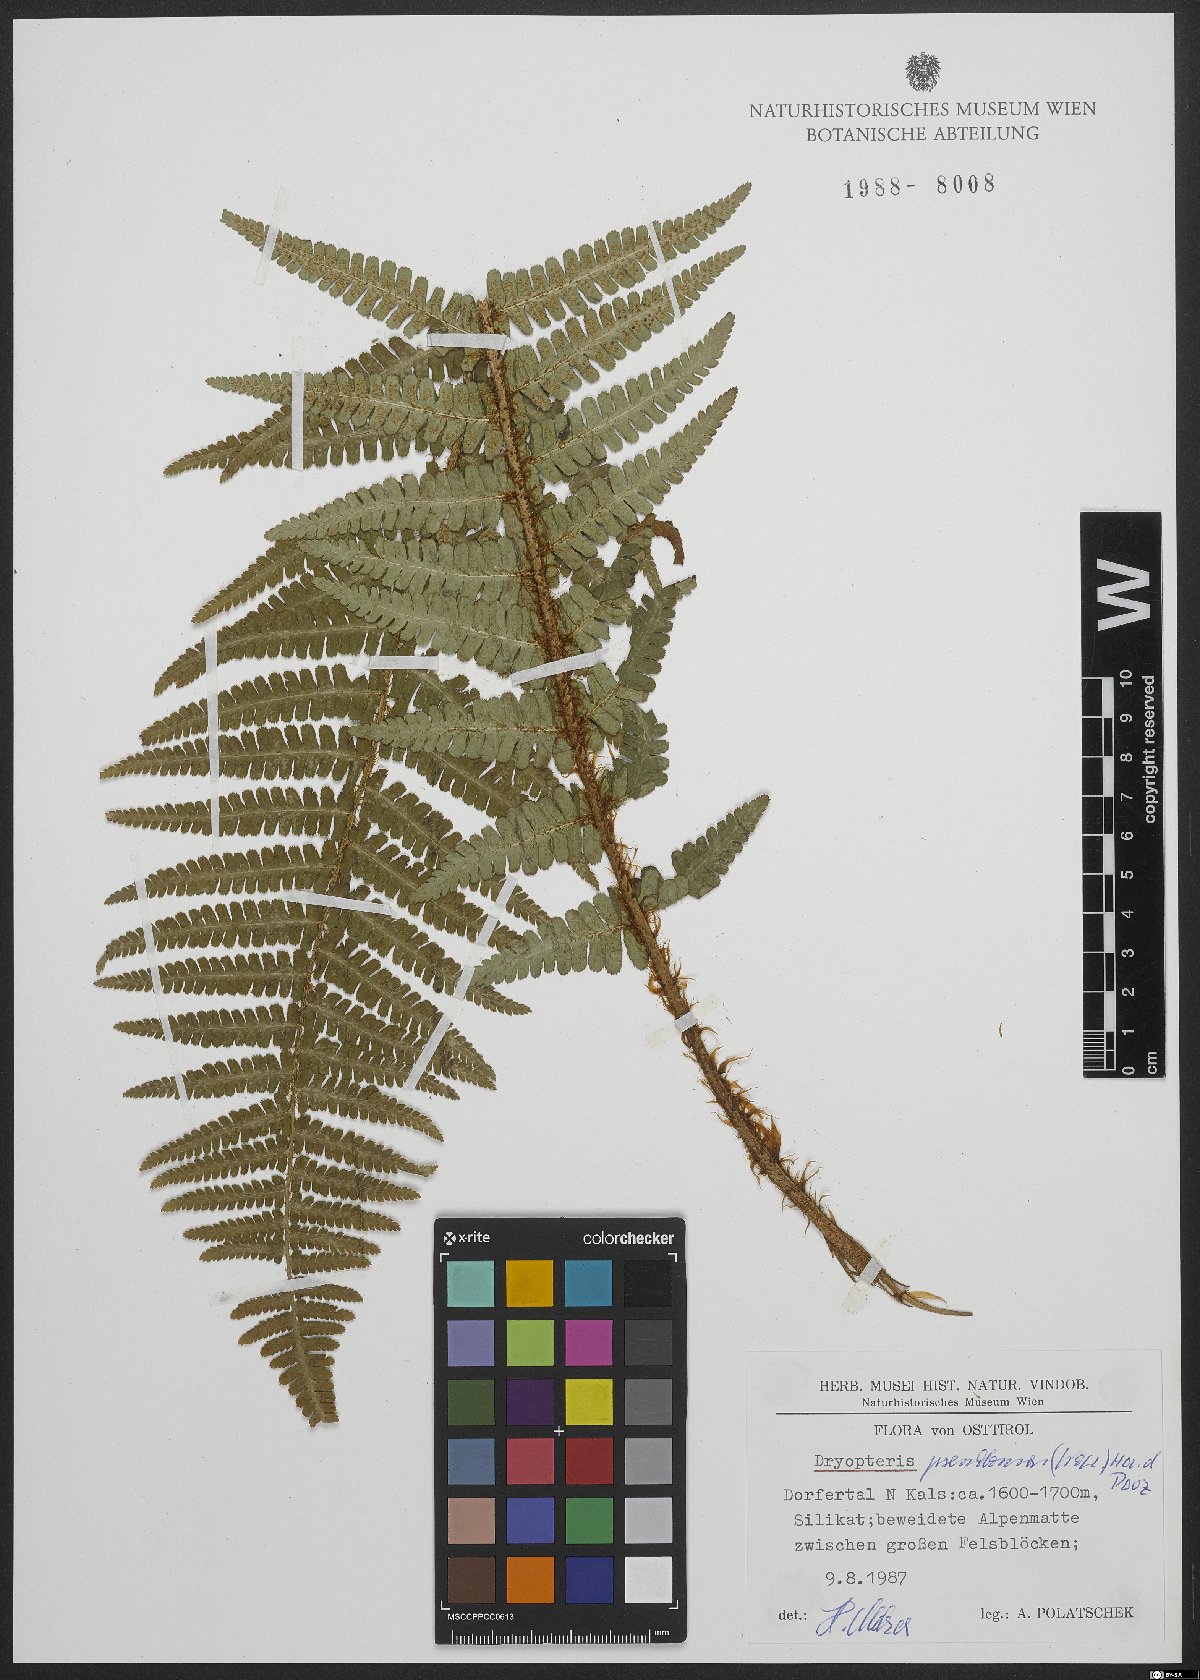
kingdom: Plantae
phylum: Tracheophyta
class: Polypodiopsida
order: Polypodiales
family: Dryopteridaceae
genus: Dryopteris
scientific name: Dryopteris cambrensis
